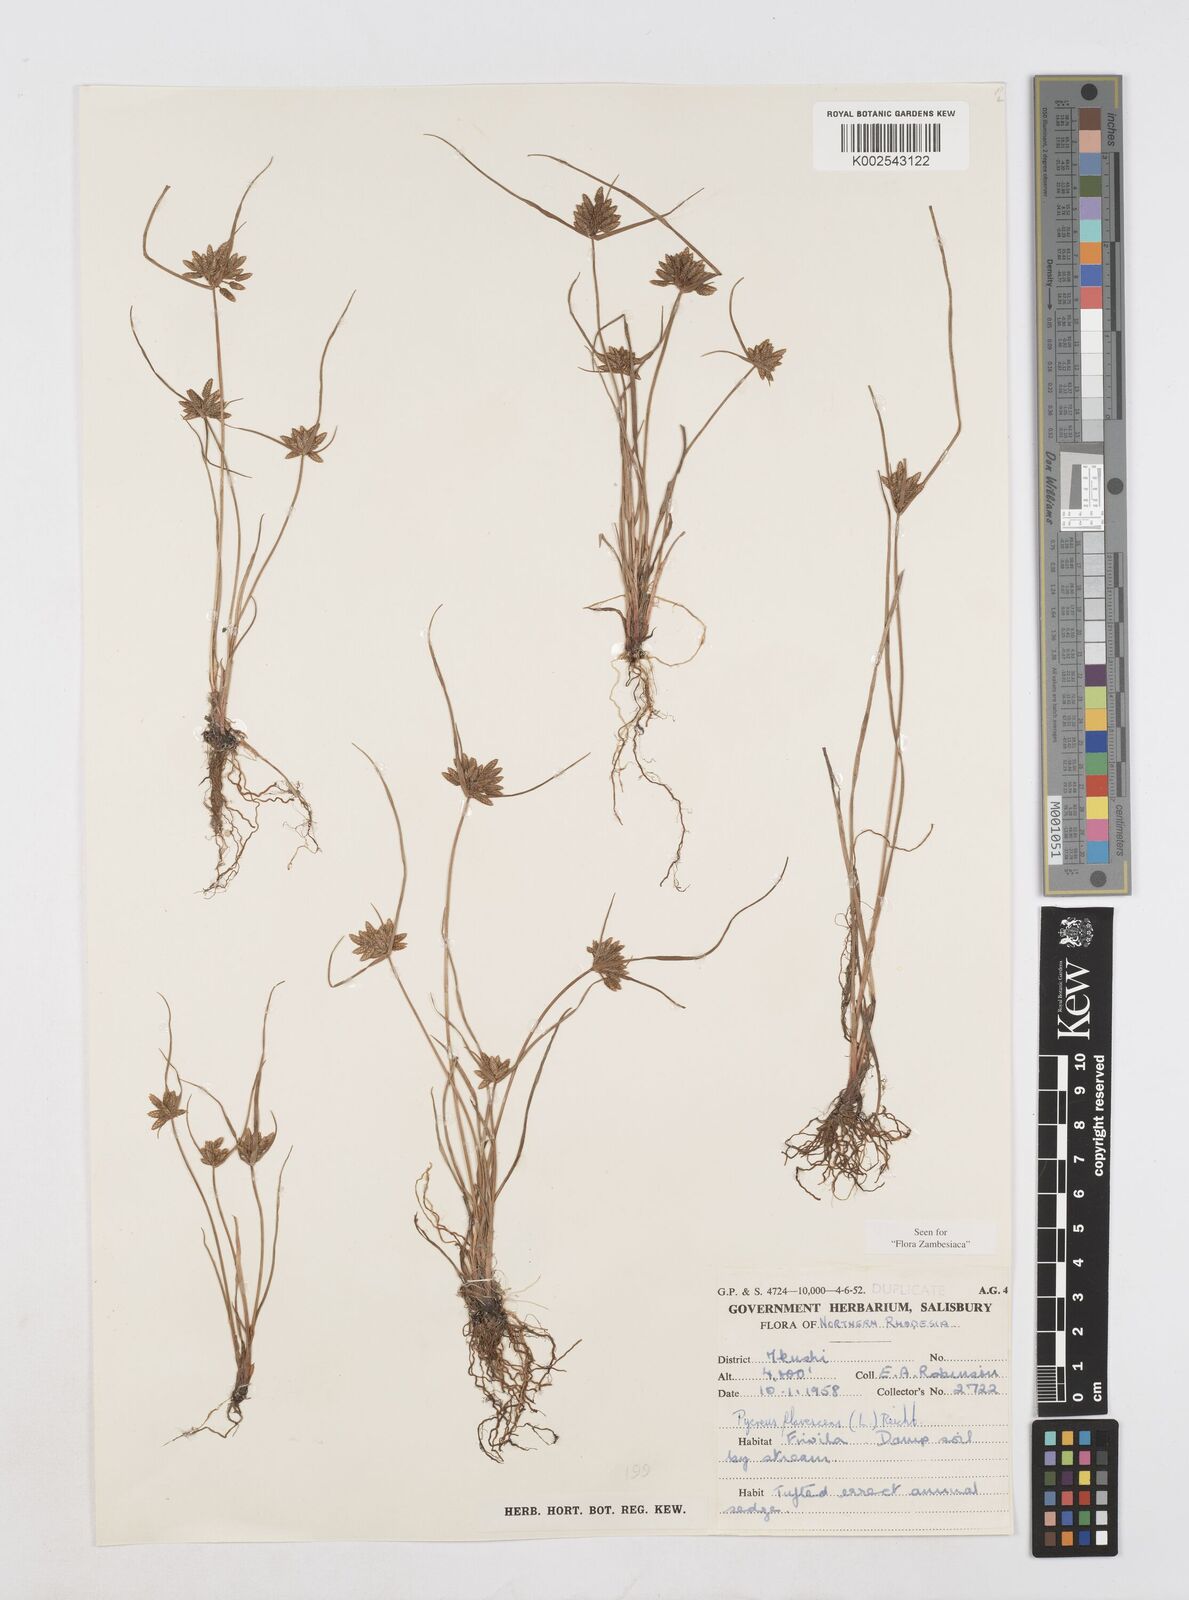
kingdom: Plantae
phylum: Tracheophyta
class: Liliopsida
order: Poales
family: Cyperaceae
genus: Cyperus
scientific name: Cyperus flavescens
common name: Yellow galingale
